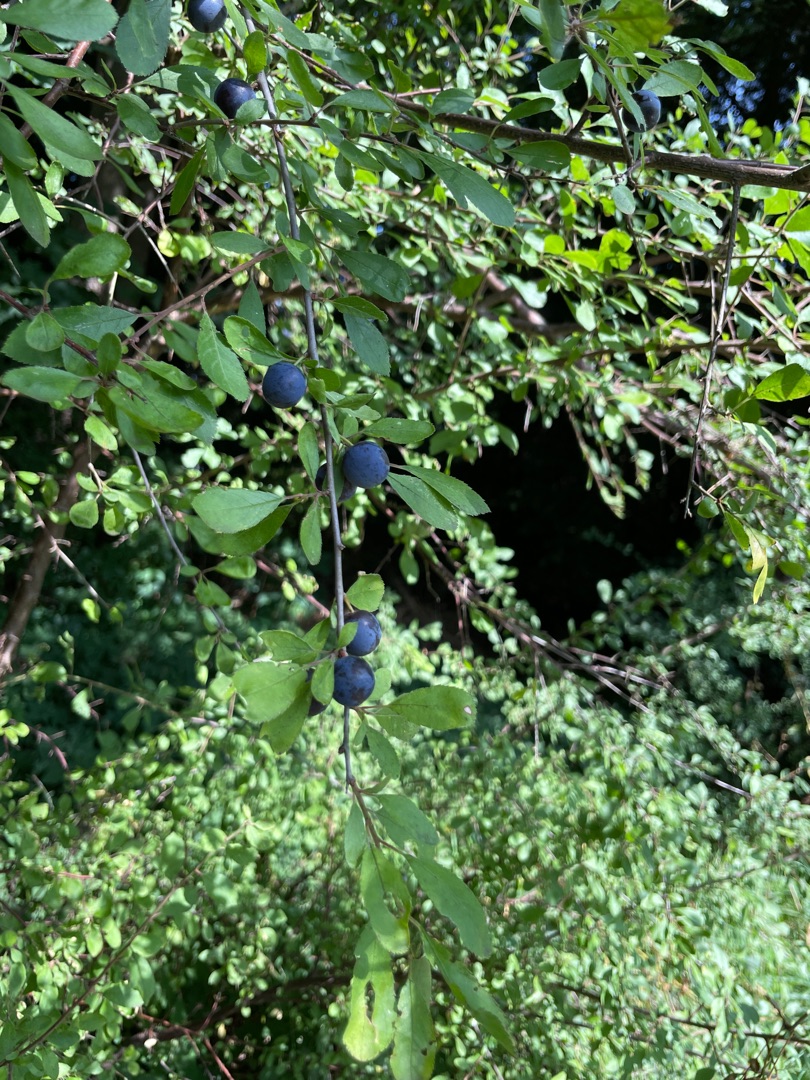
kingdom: Plantae
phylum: Tracheophyta
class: Magnoliopsida
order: Rosales
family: Rosaceae
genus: Prunus
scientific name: Prunus spinosa
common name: Slåen
